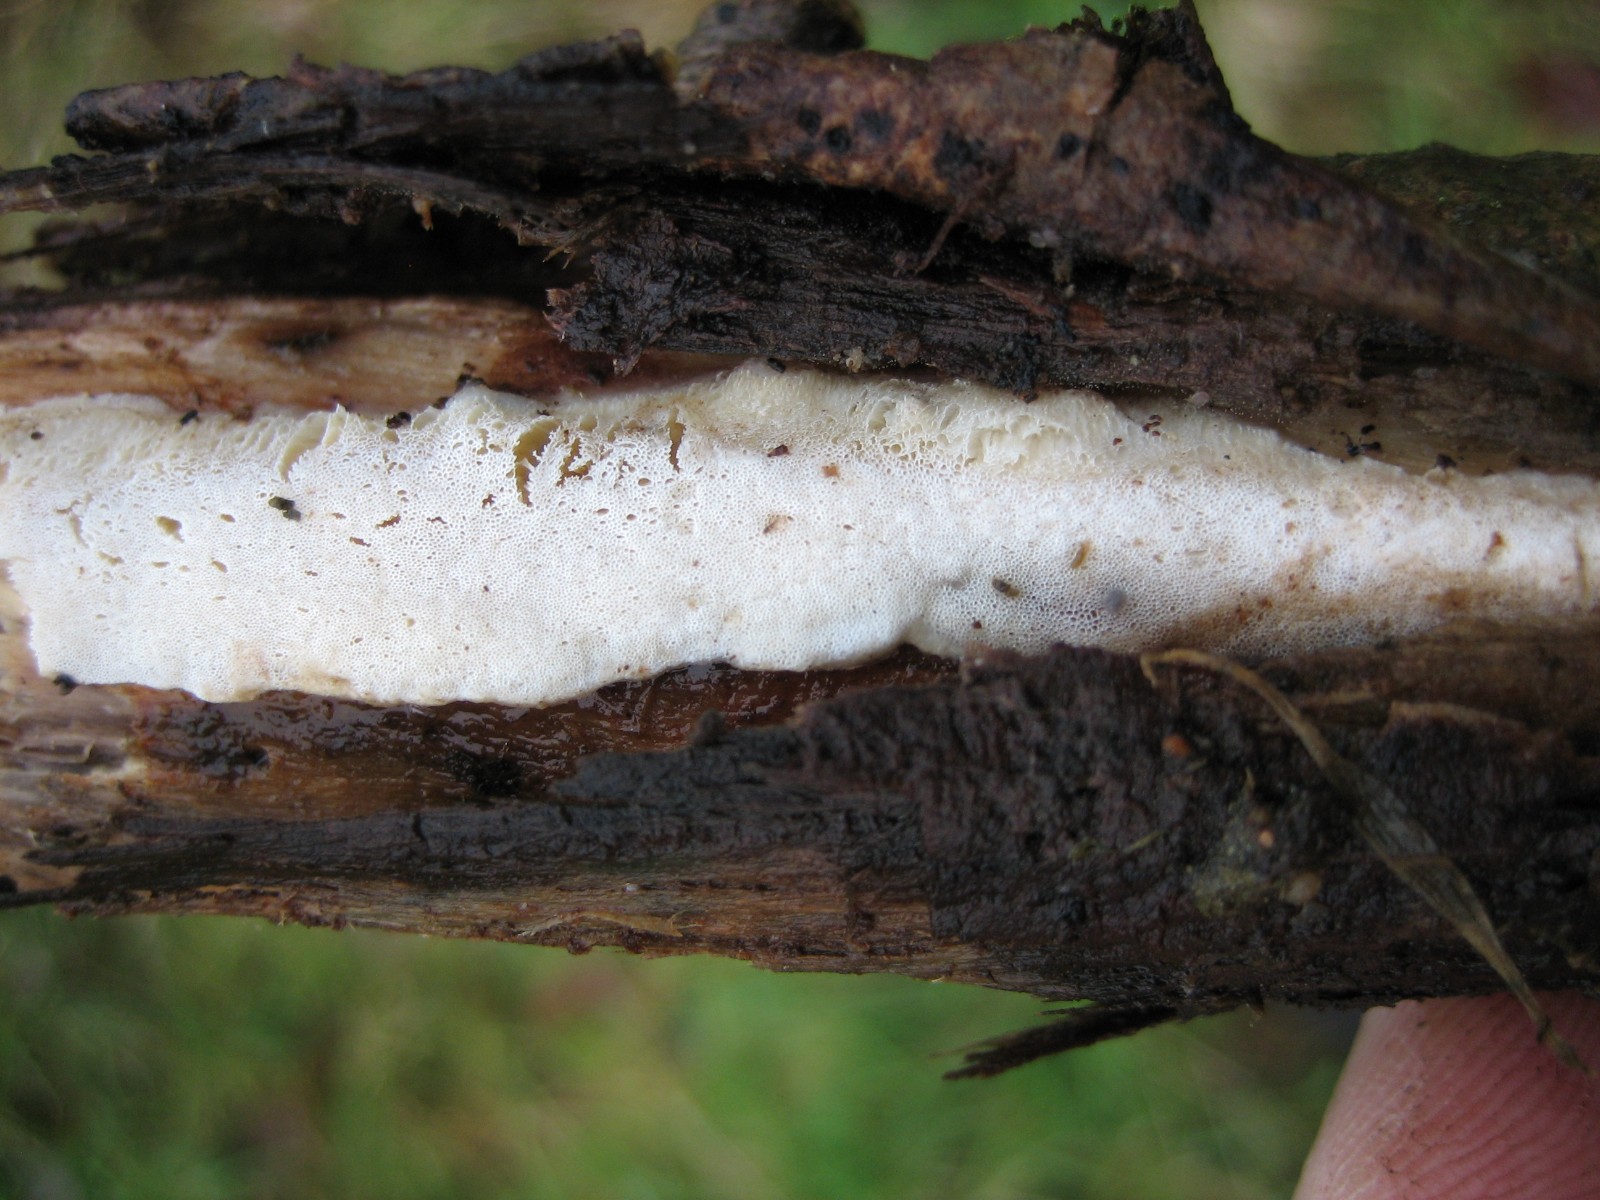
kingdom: Fungi
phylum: Basidiomycota
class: Agaricomycetes
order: Polyporales
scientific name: Polyporales
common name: poresvampordenen
